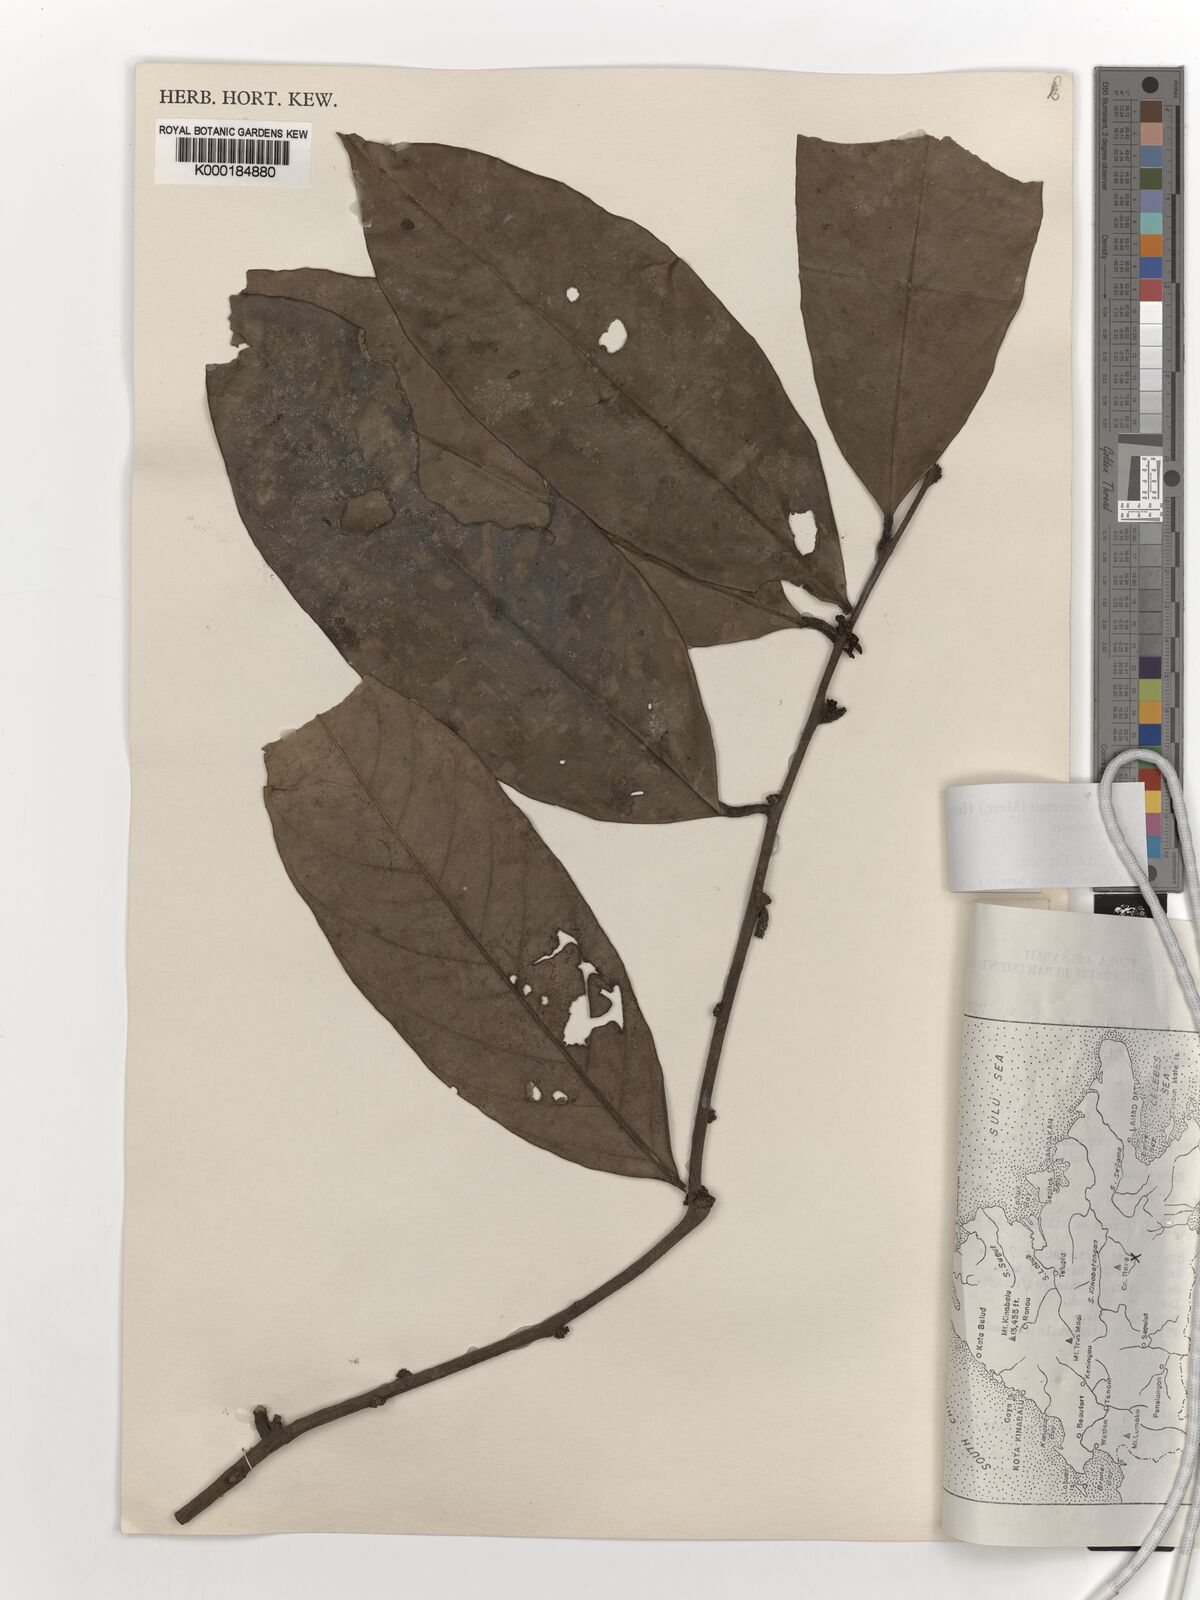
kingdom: Plantae
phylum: Tracheophyta
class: Magnoliopsida
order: Solanales
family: Convolvulaceae
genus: Erycibe
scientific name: Erycibe borneensis
